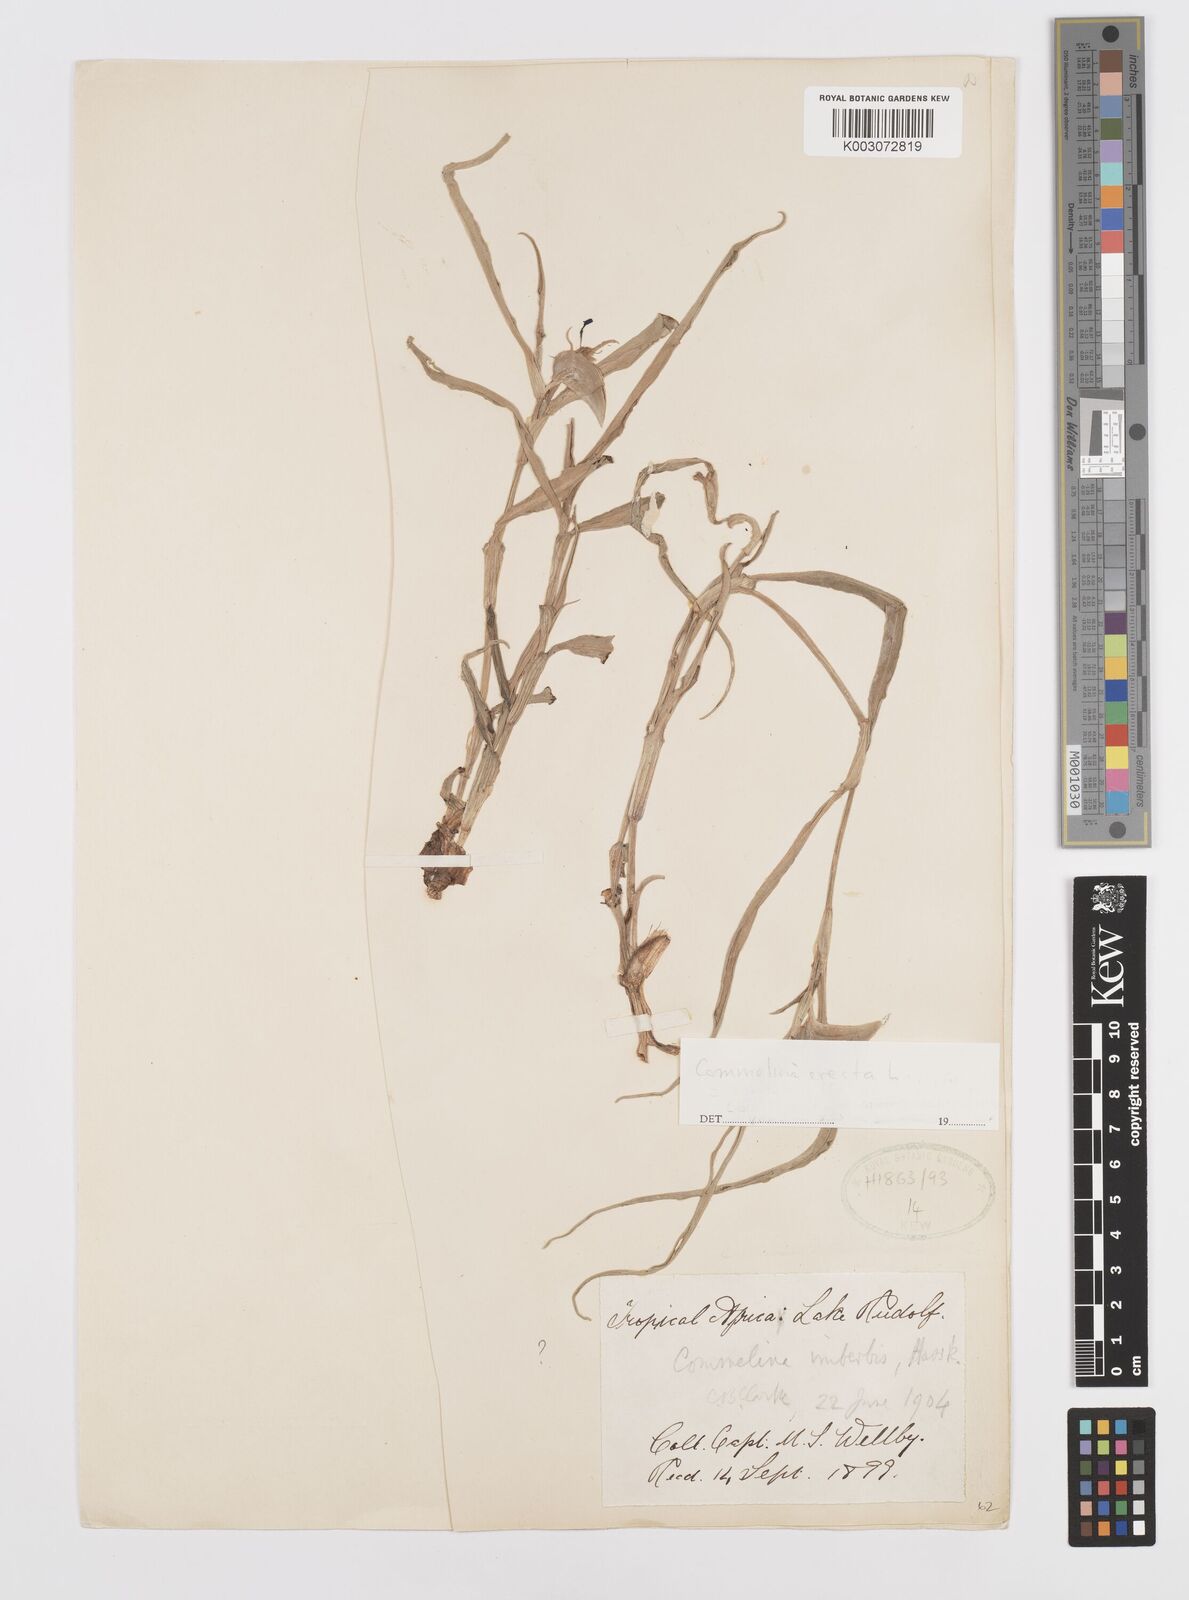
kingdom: Plantae
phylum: Tracheophyta
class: Liliopsida
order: Commelinales
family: Commelinaceae
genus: Commelina
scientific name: Commelina erecta
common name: Blousel blommetjie
